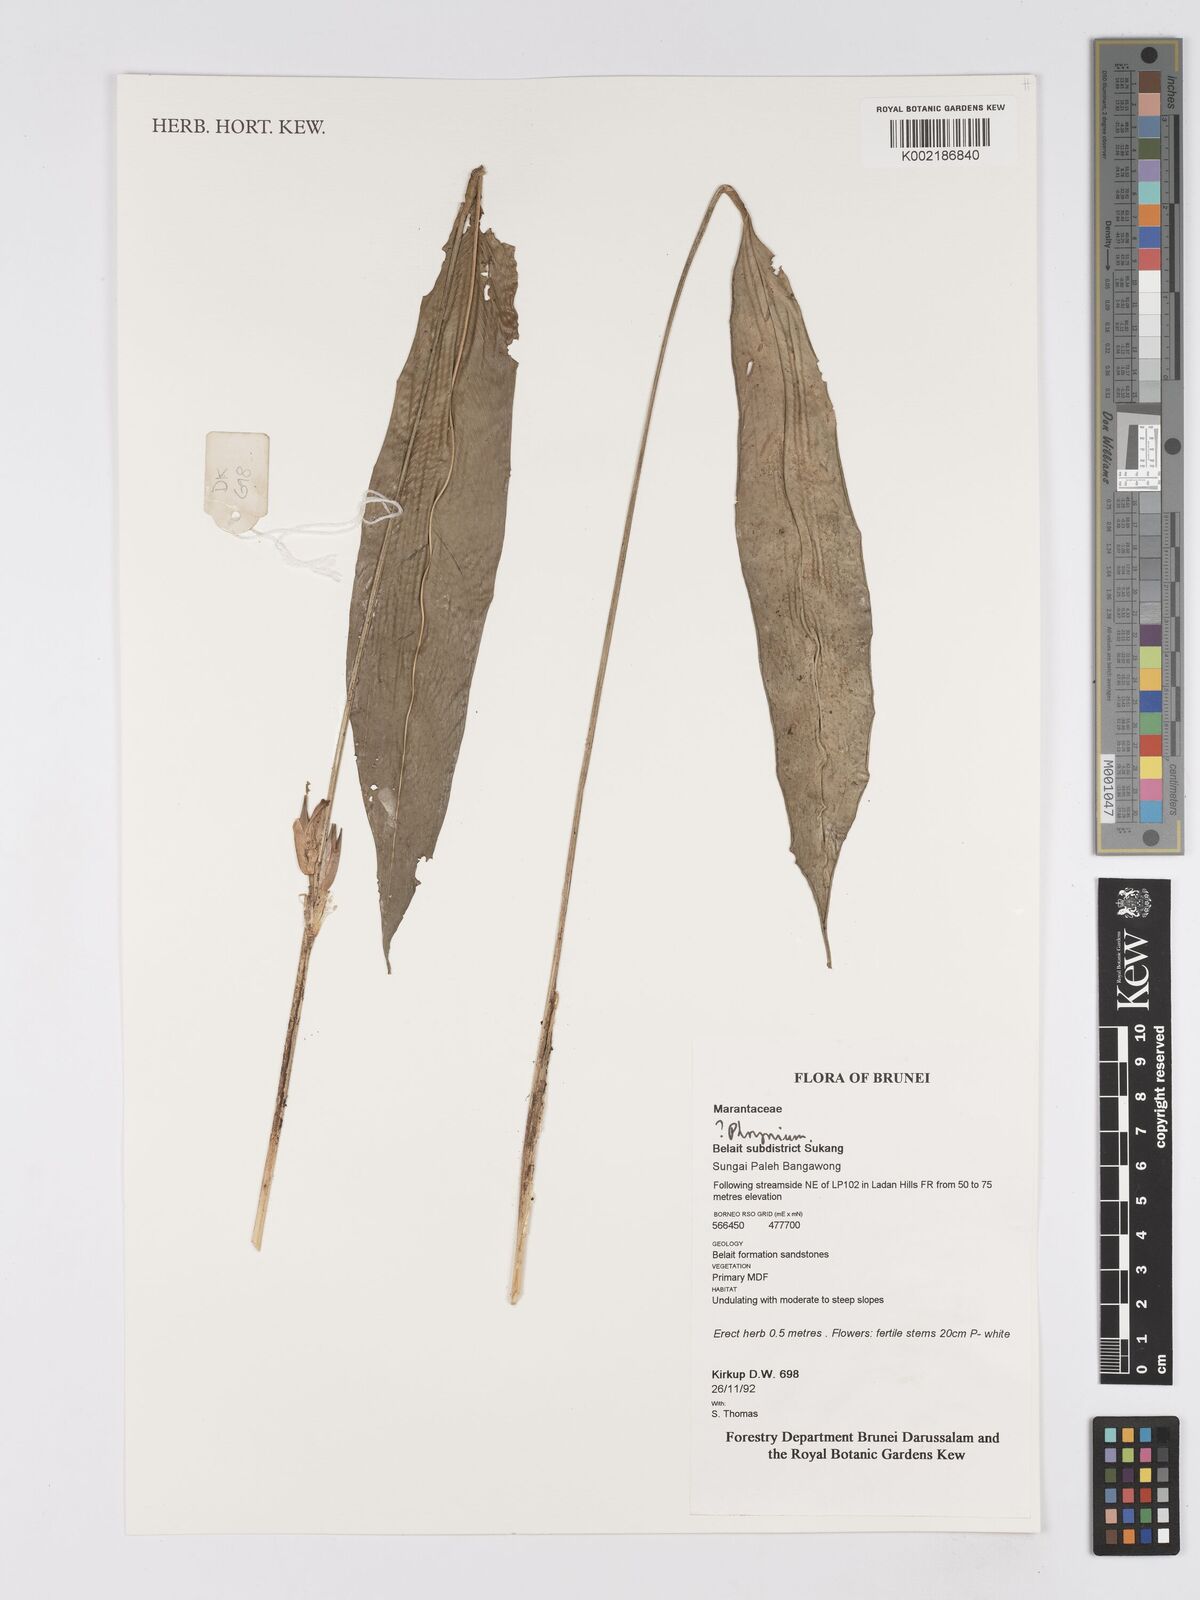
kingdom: Plantae
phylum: Tracheophyta
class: Liliopsida
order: Zingiberales
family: Marantaceae
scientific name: Marantaceae
